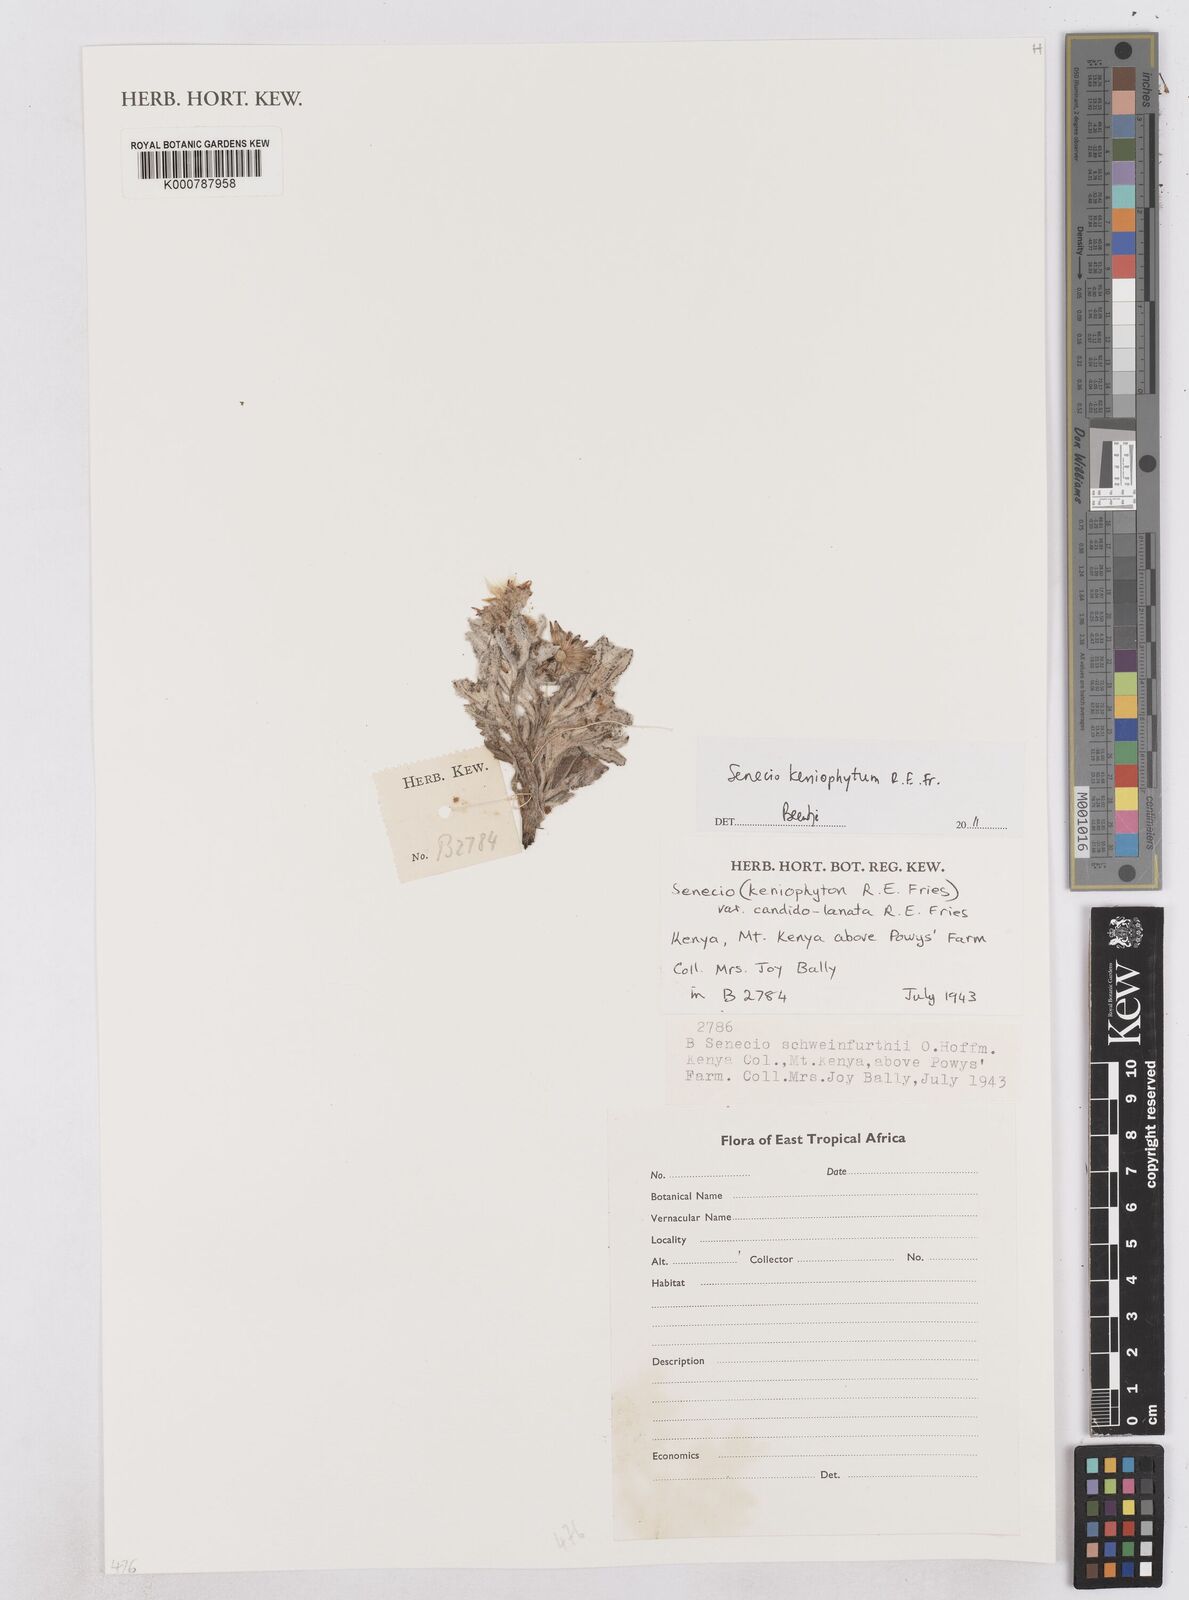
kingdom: Plantae
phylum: Tracheophyta
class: Magnoliopsida
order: Asterales
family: Asteraceae
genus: Senecio
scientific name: Senecio keniophytum
